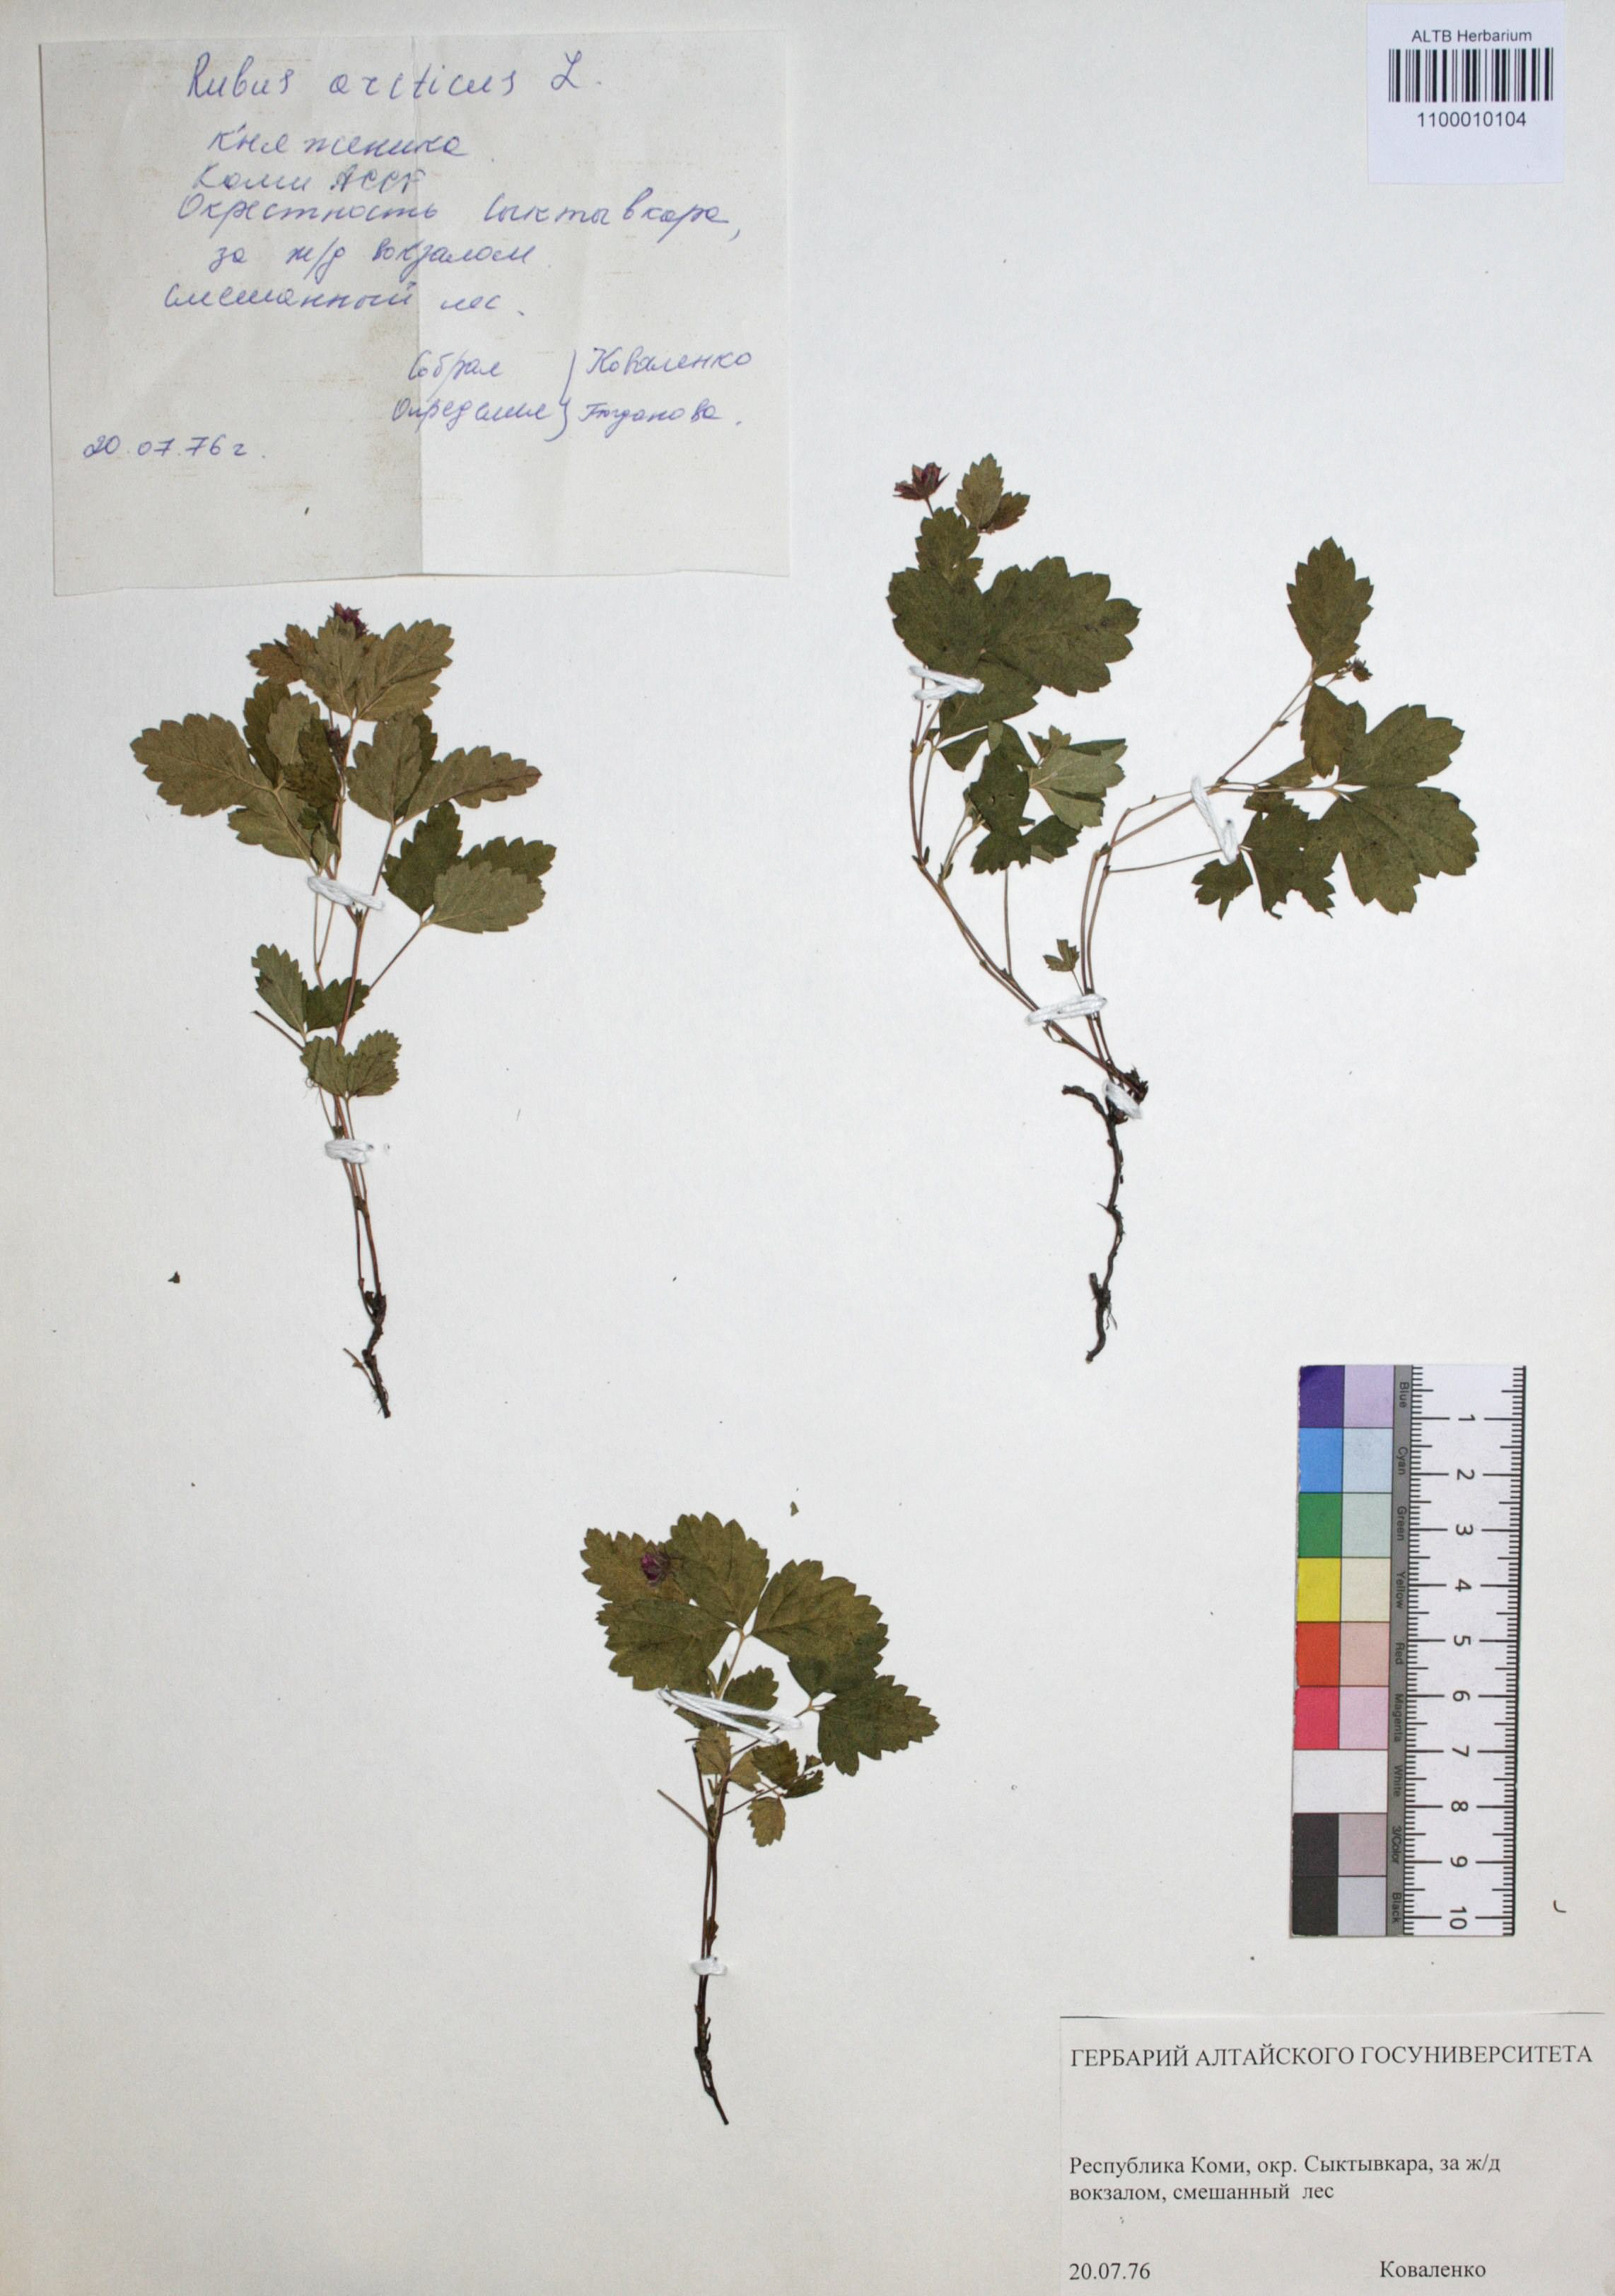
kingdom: Plantae
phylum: Tracheophyta
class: Magnoliopsida
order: Rosales
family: Rosaceae
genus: Rubus
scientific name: Rubus arcticus
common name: Arctic bramble
